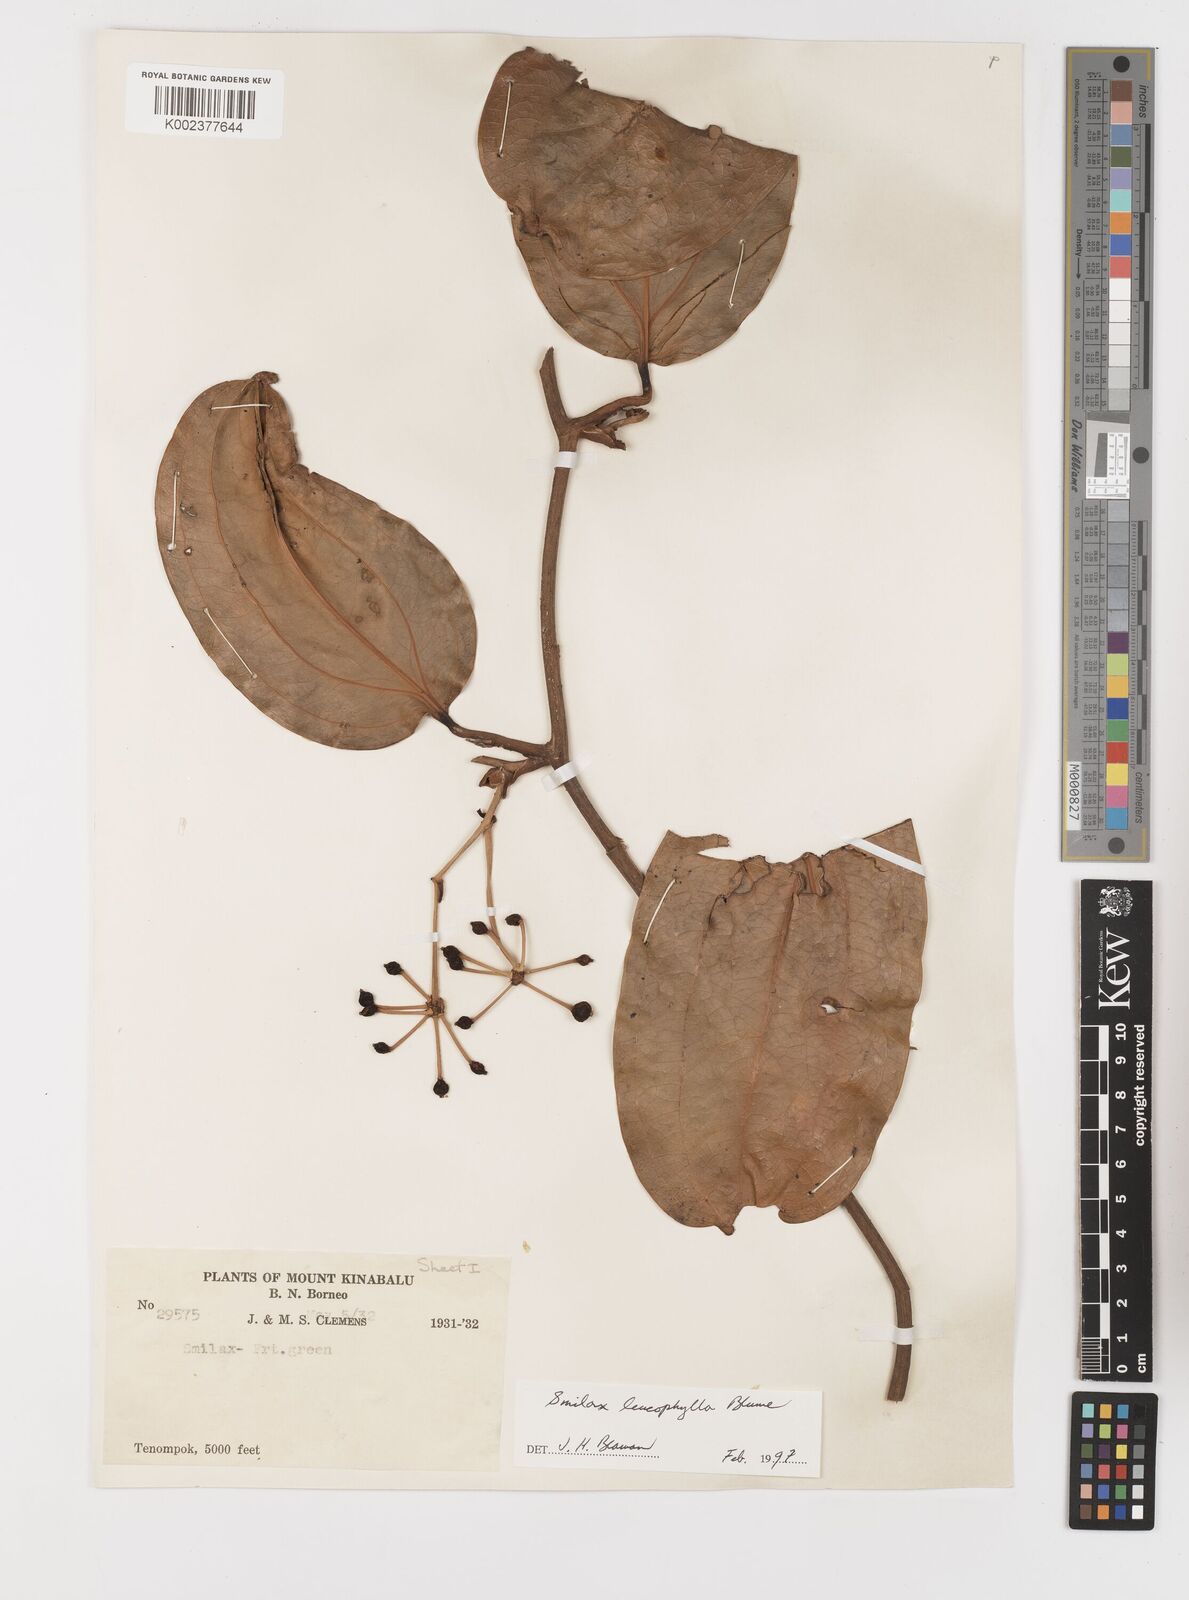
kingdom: Plantae
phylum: Tracheophyta
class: Liliopsida
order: Liliales
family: Smilacaceae
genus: Smilax
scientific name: Smilax leucophylla
